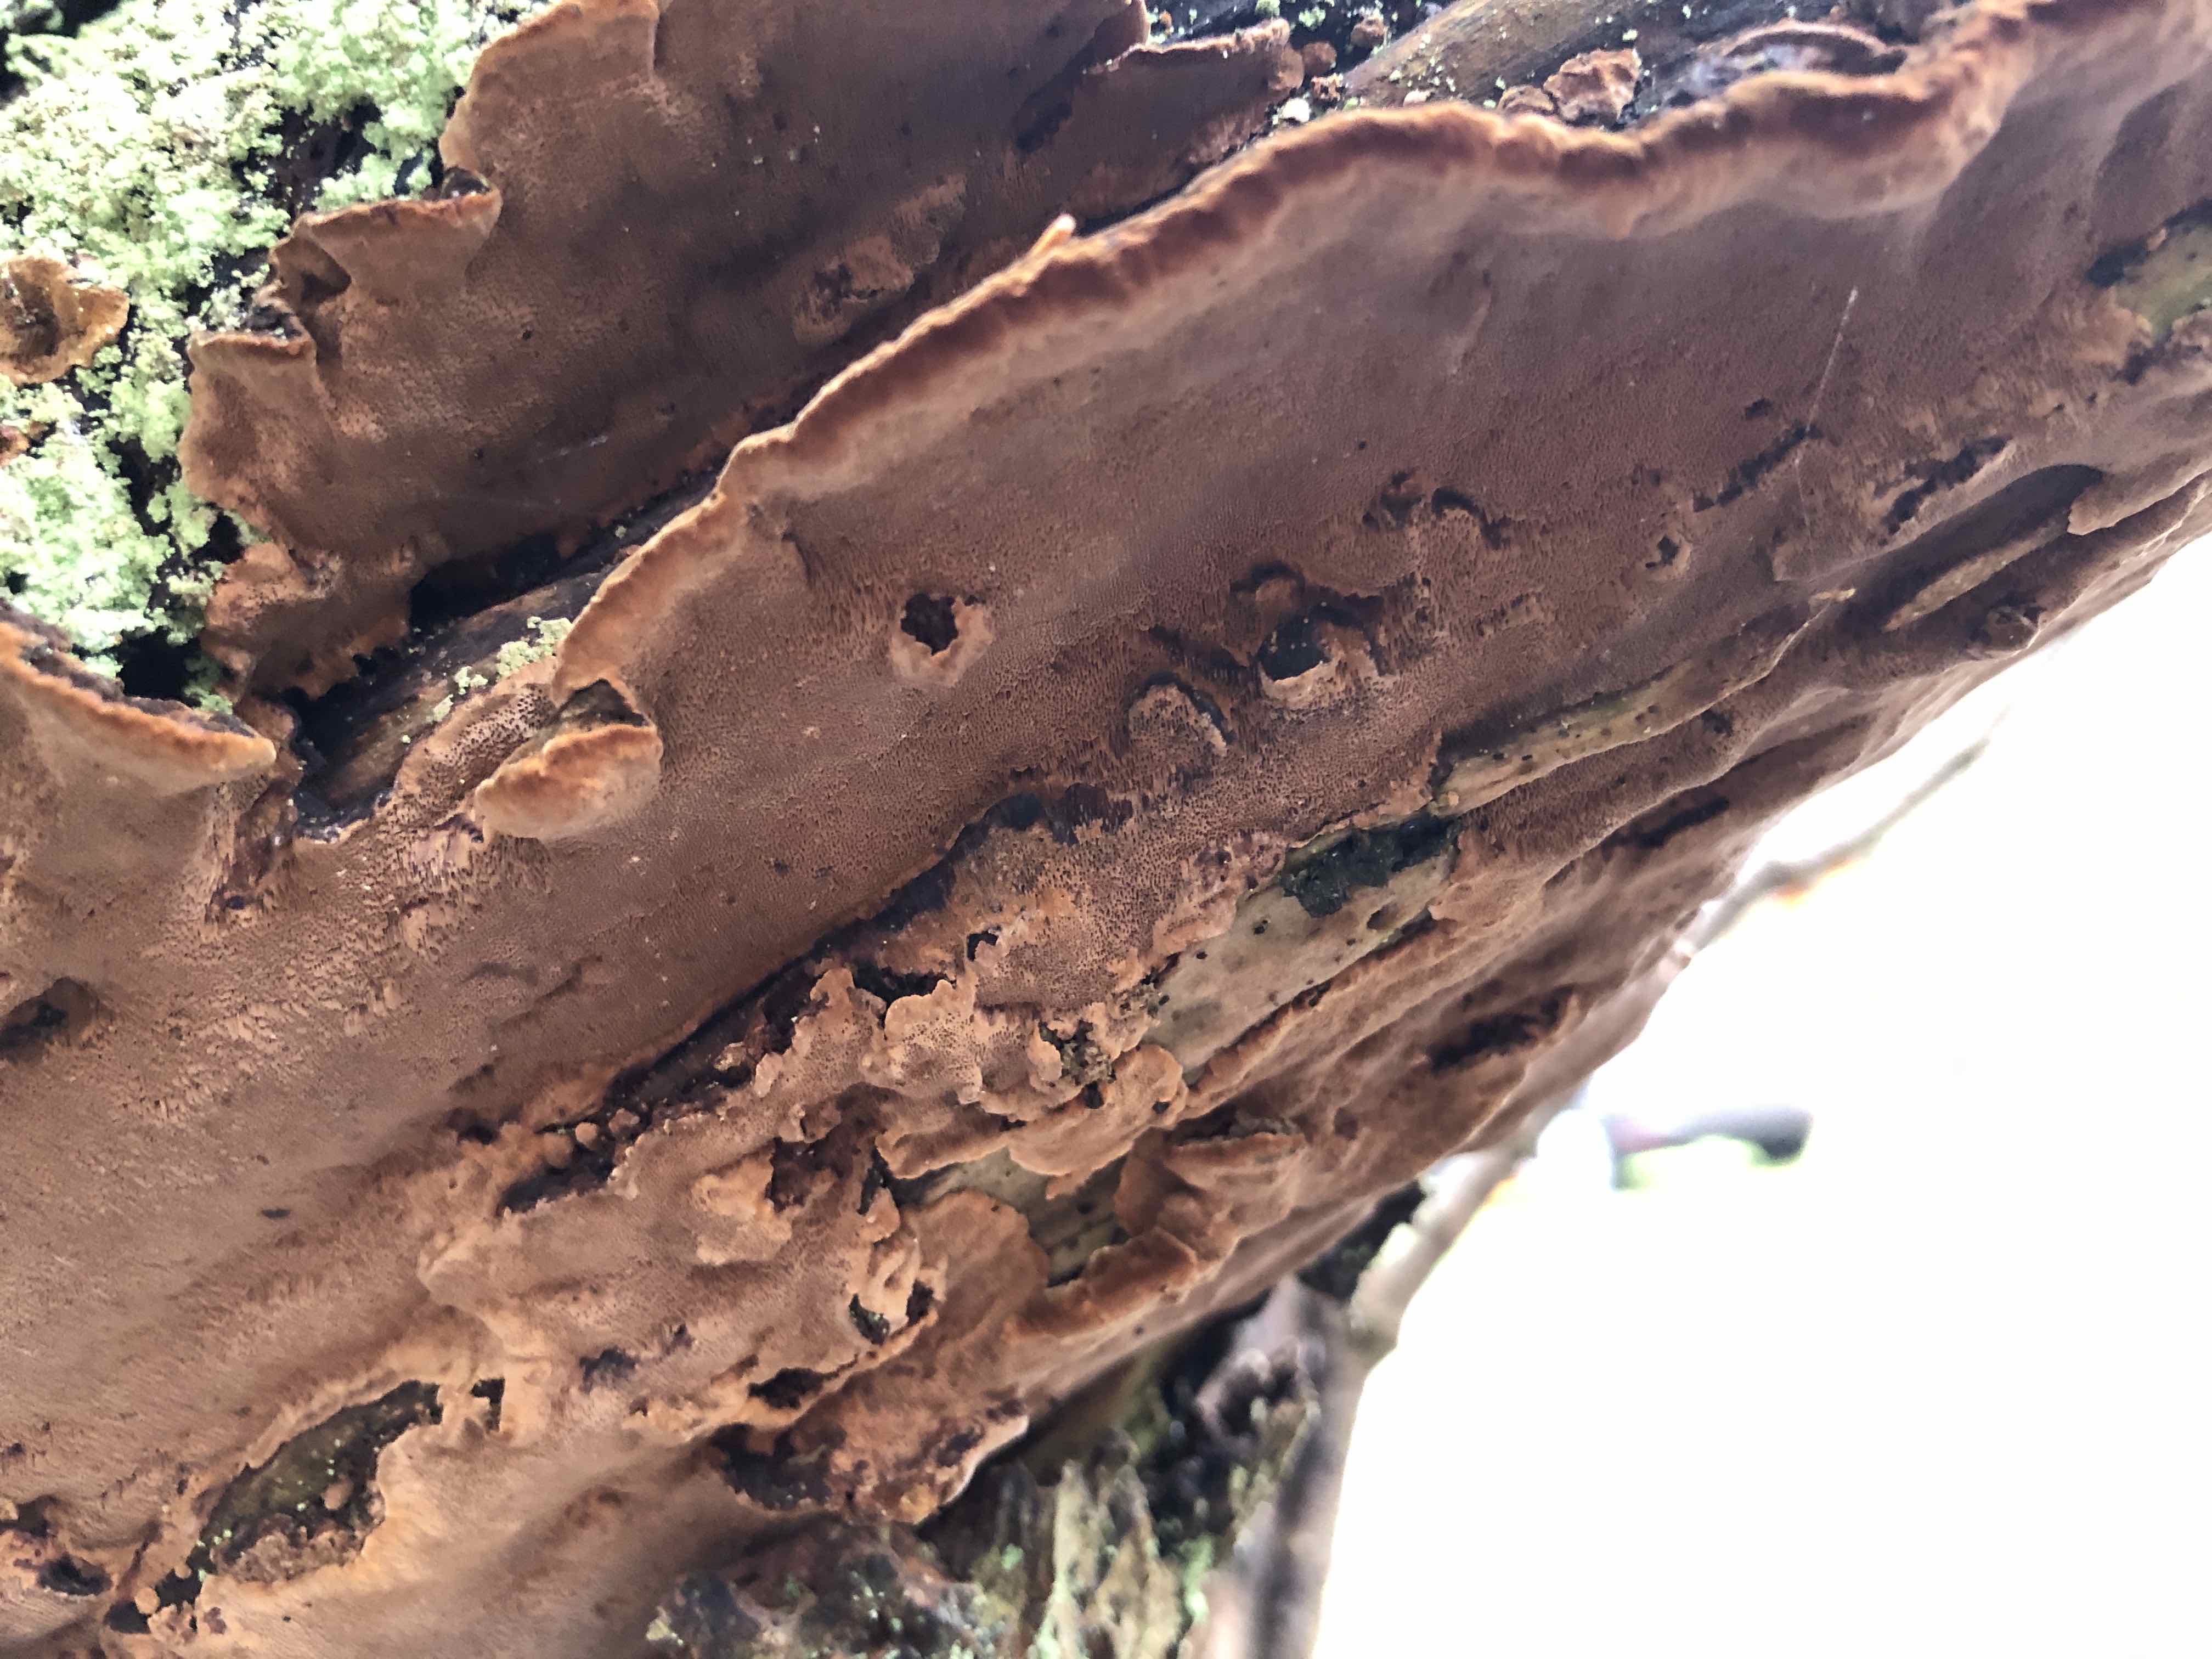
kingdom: Fungi
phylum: Basidiomycota
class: Agaricomycetes
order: Hymenochaetales
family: Hymenochaetaceae
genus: Phellinopsis
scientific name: Phellinopsis conchata
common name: pile-ildporesvamp
